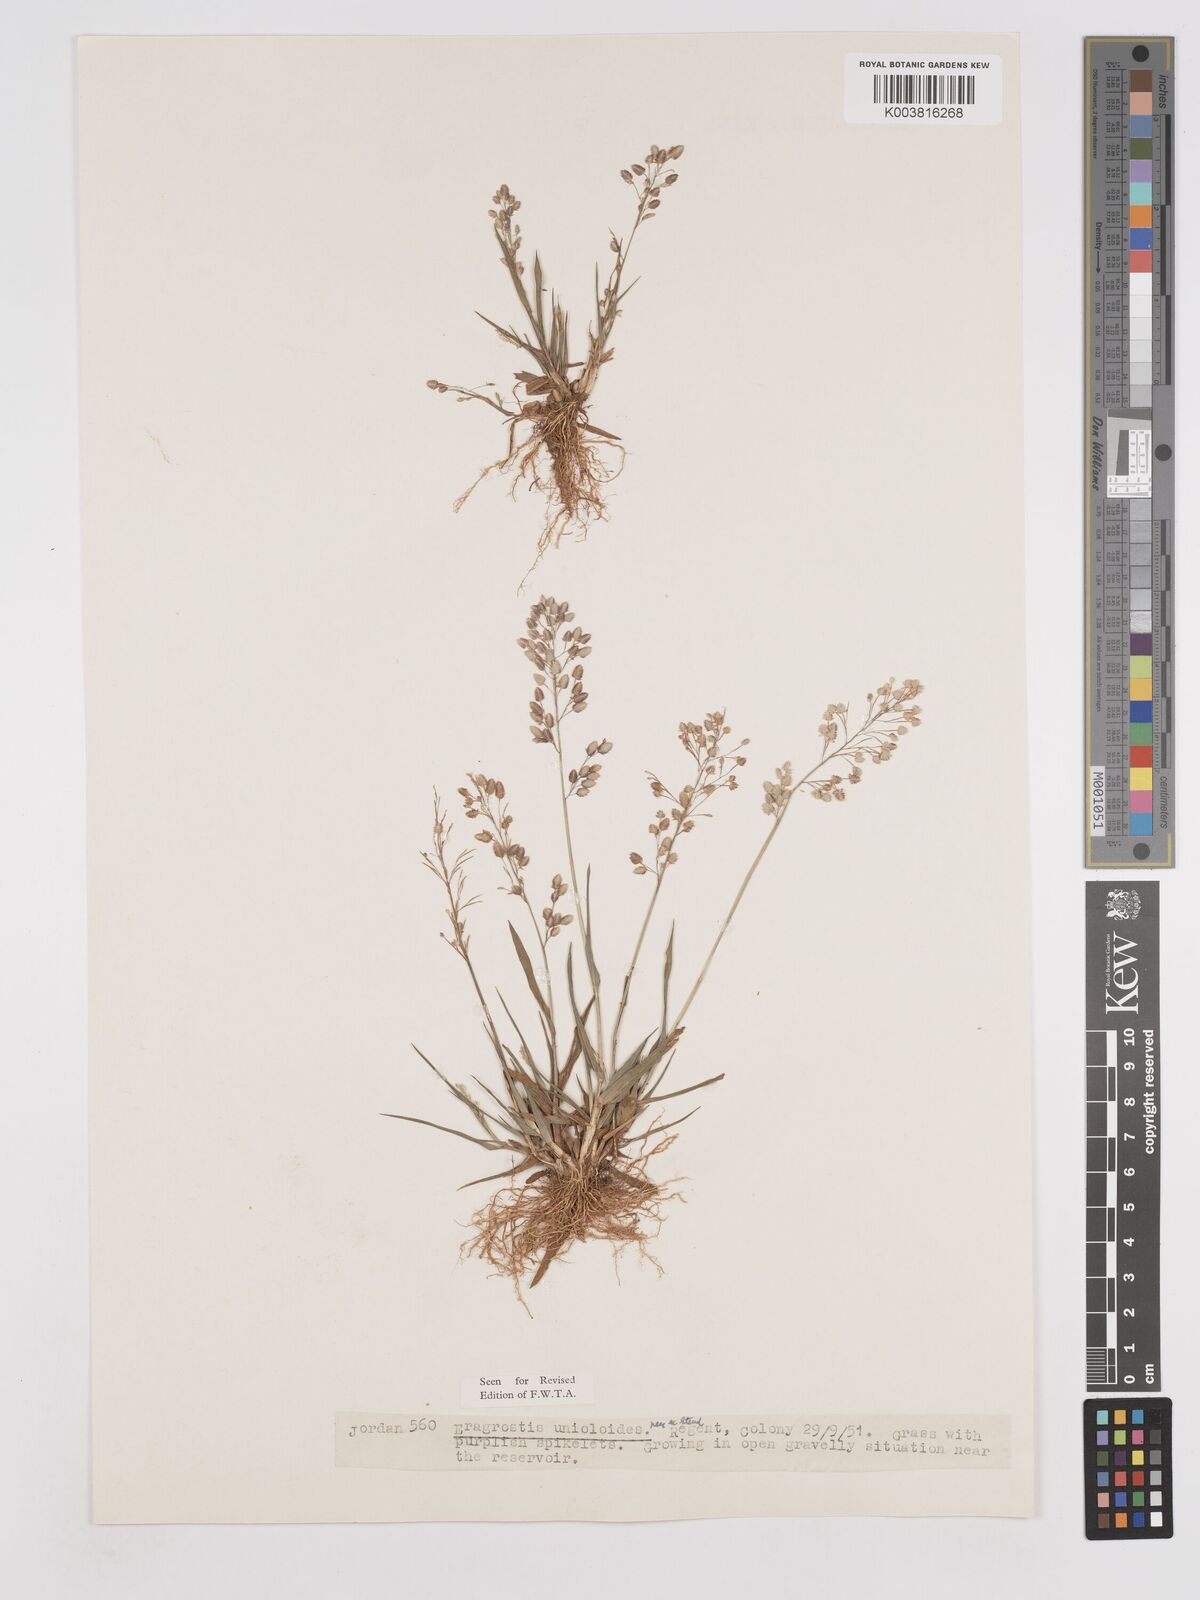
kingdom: Plantae
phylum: Tracheophyta
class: Liliopsida
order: Poales
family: Poaceae
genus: Eragrostis
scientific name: Eragrostis unioloides
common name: Chinese lovegrass
